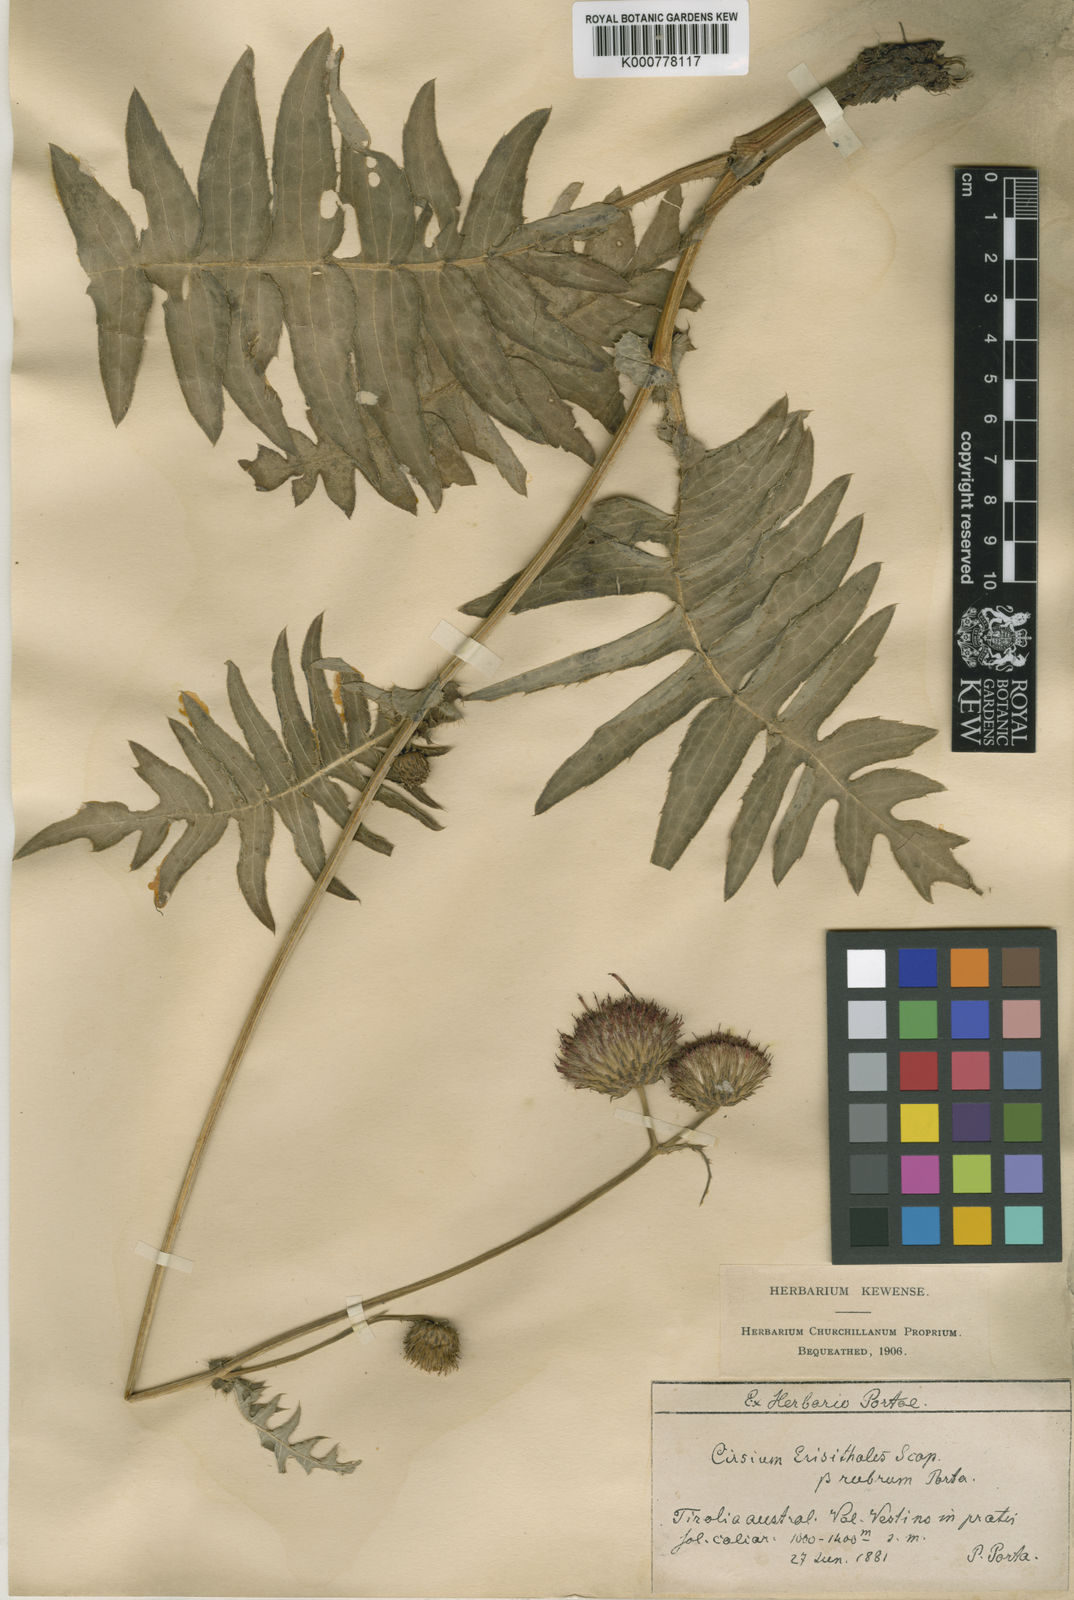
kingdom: Plantae
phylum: Tracheophyta
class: Magnoliopsida
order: Asterales
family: Asteraceae
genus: Cirsium
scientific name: Cirsium pannonicum
